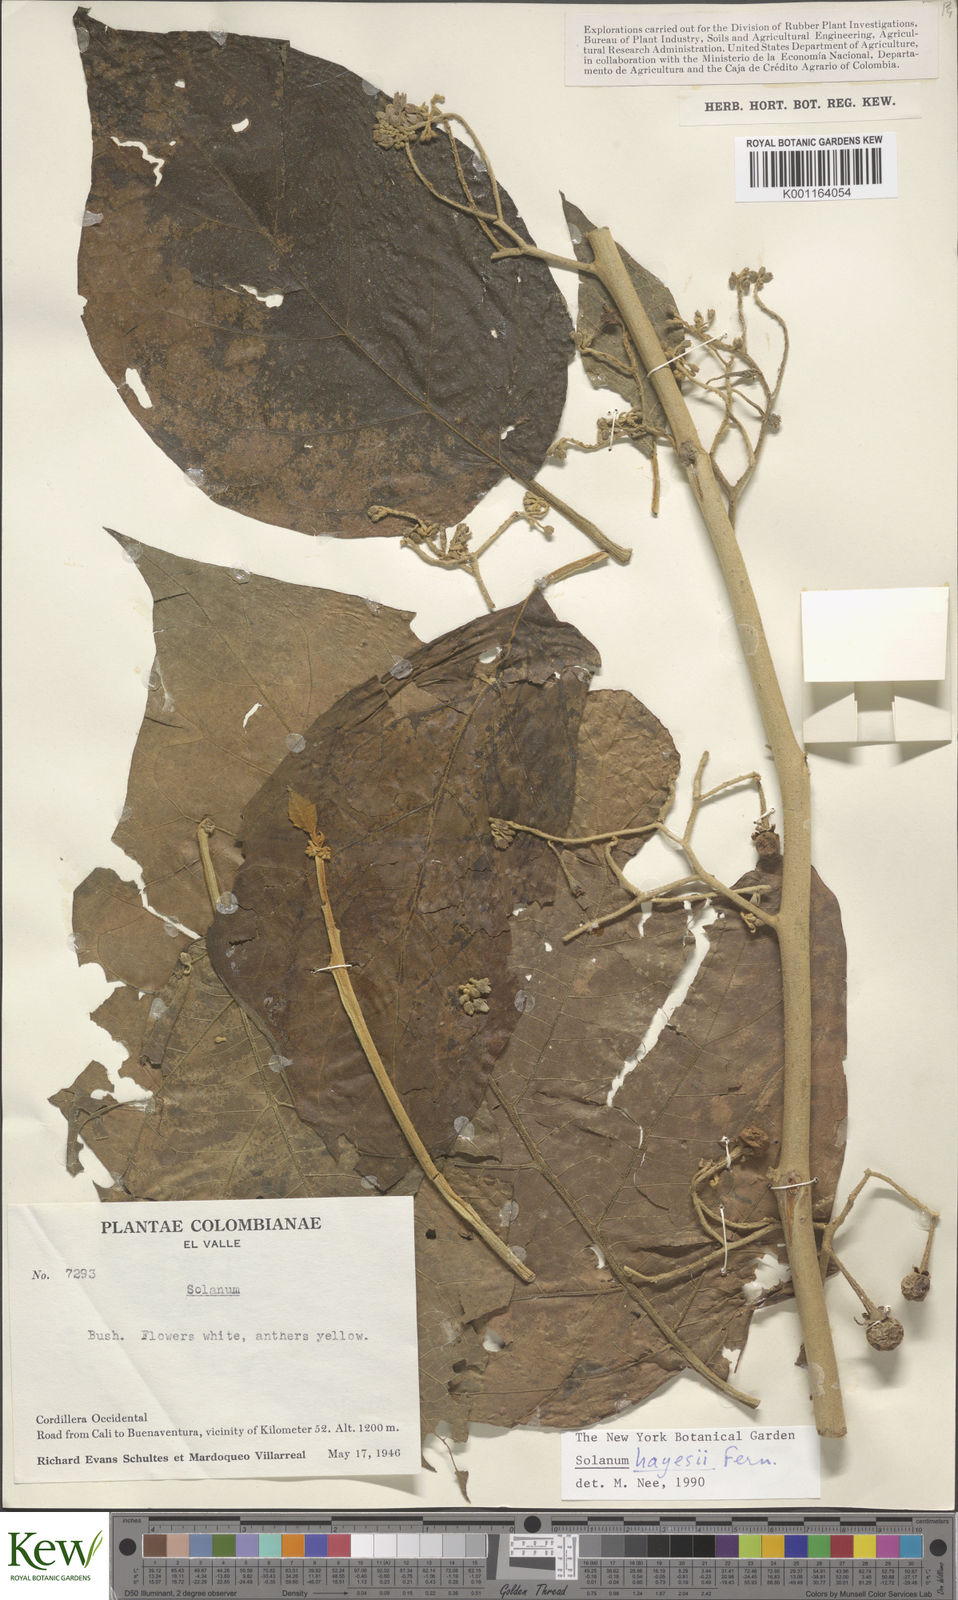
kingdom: Plantae
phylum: Tracheophyta
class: Magnoliopsida
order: Solanales
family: Solanaceae
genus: Solanum
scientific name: Solanum hayesii
